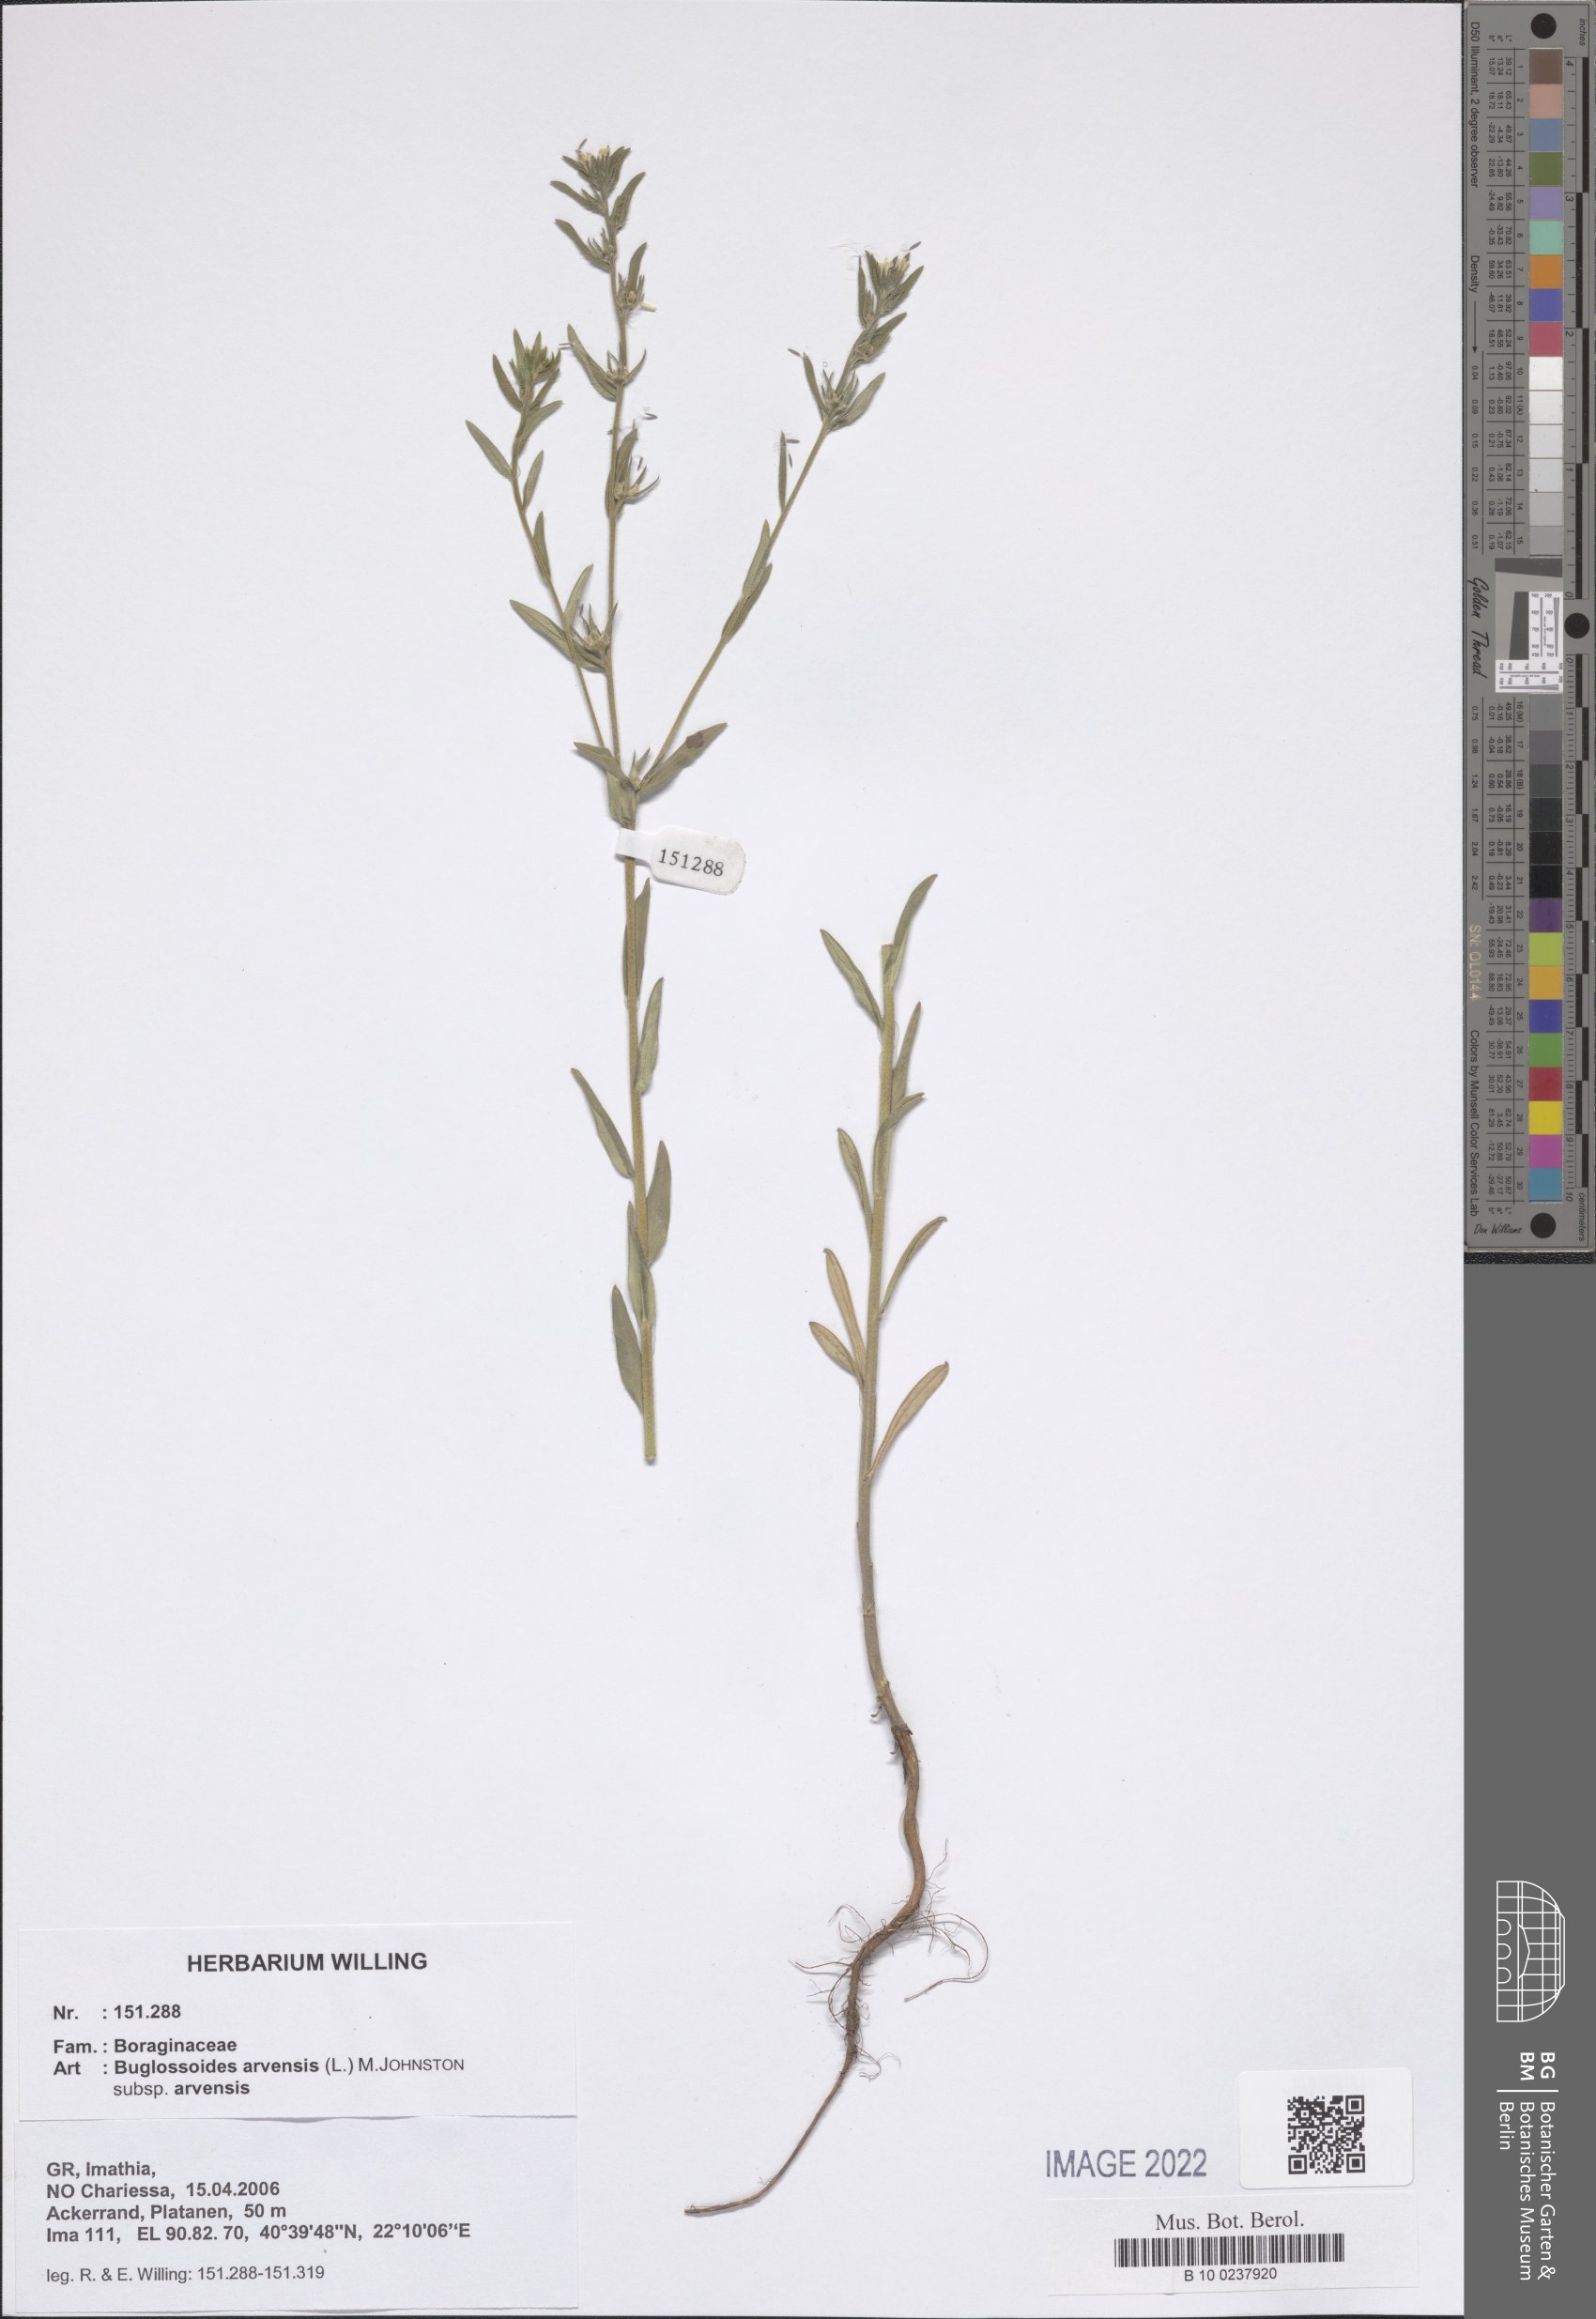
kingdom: Plantae
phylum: Tracheophyta
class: Magnoliopsida
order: Boraginales
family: Boraginaceae
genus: Buglossoides
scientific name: Buglossoides arvensis
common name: Corn gromwell
